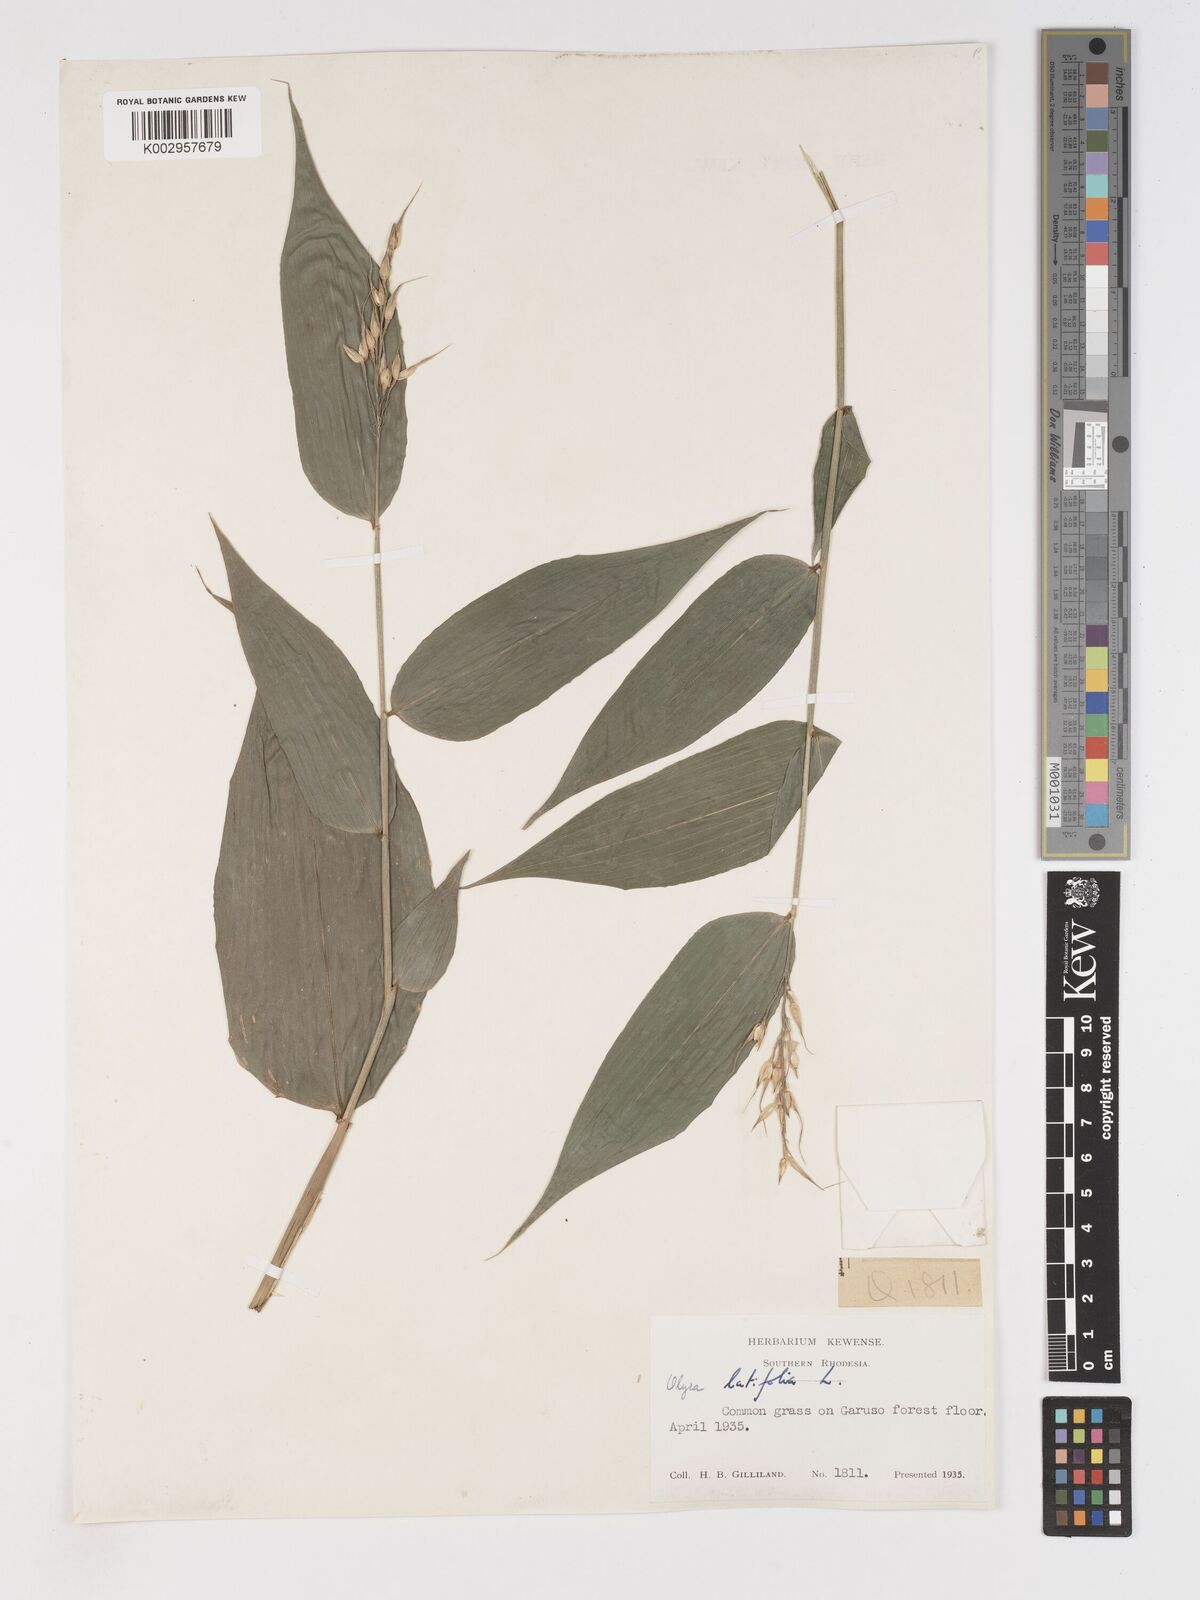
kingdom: Plantae
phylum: Tracheophyta
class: Liliopsida
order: Poales
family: Poaceae
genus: Olyra
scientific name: Olyra latifolia
